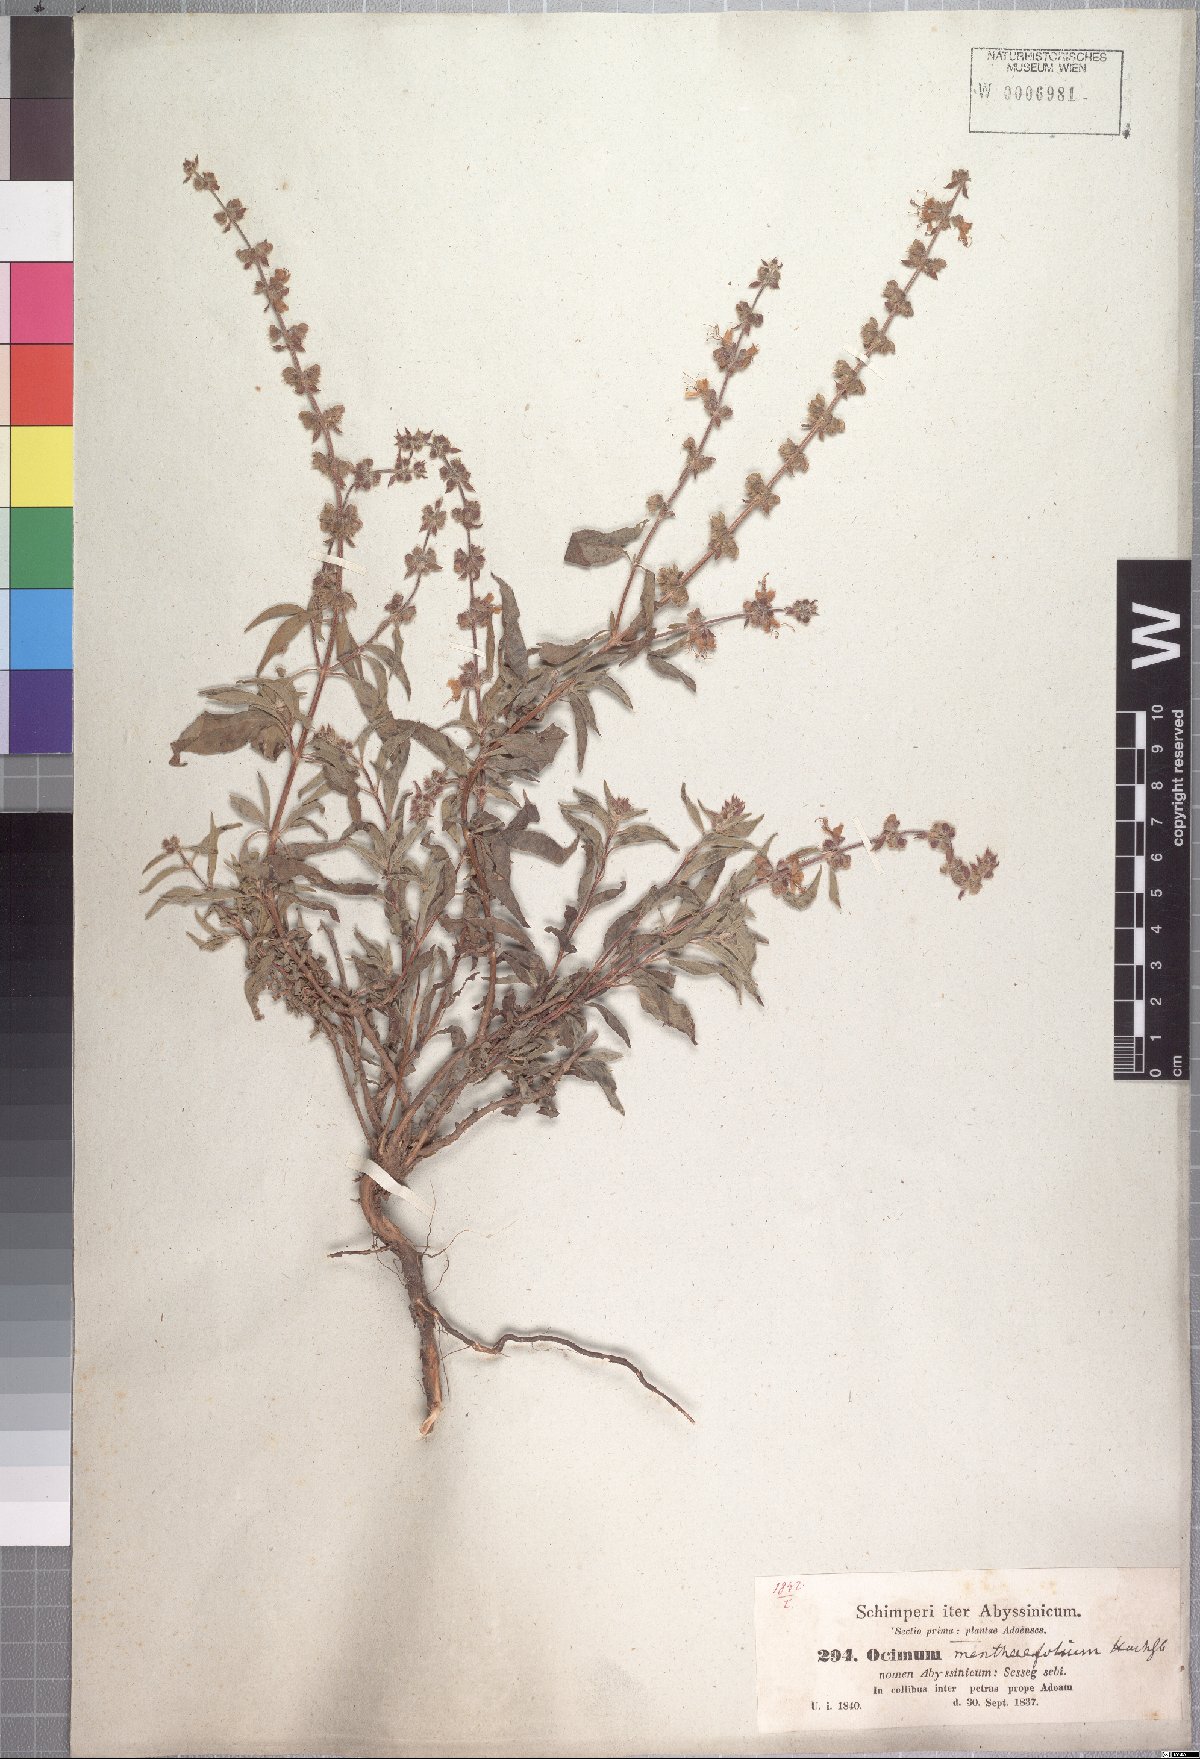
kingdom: Plantae
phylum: Tracheophyta
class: Magnoliopsida
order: Lamiales
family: Lamiaceae
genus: Ocimum
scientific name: Ocimum forskoelei
